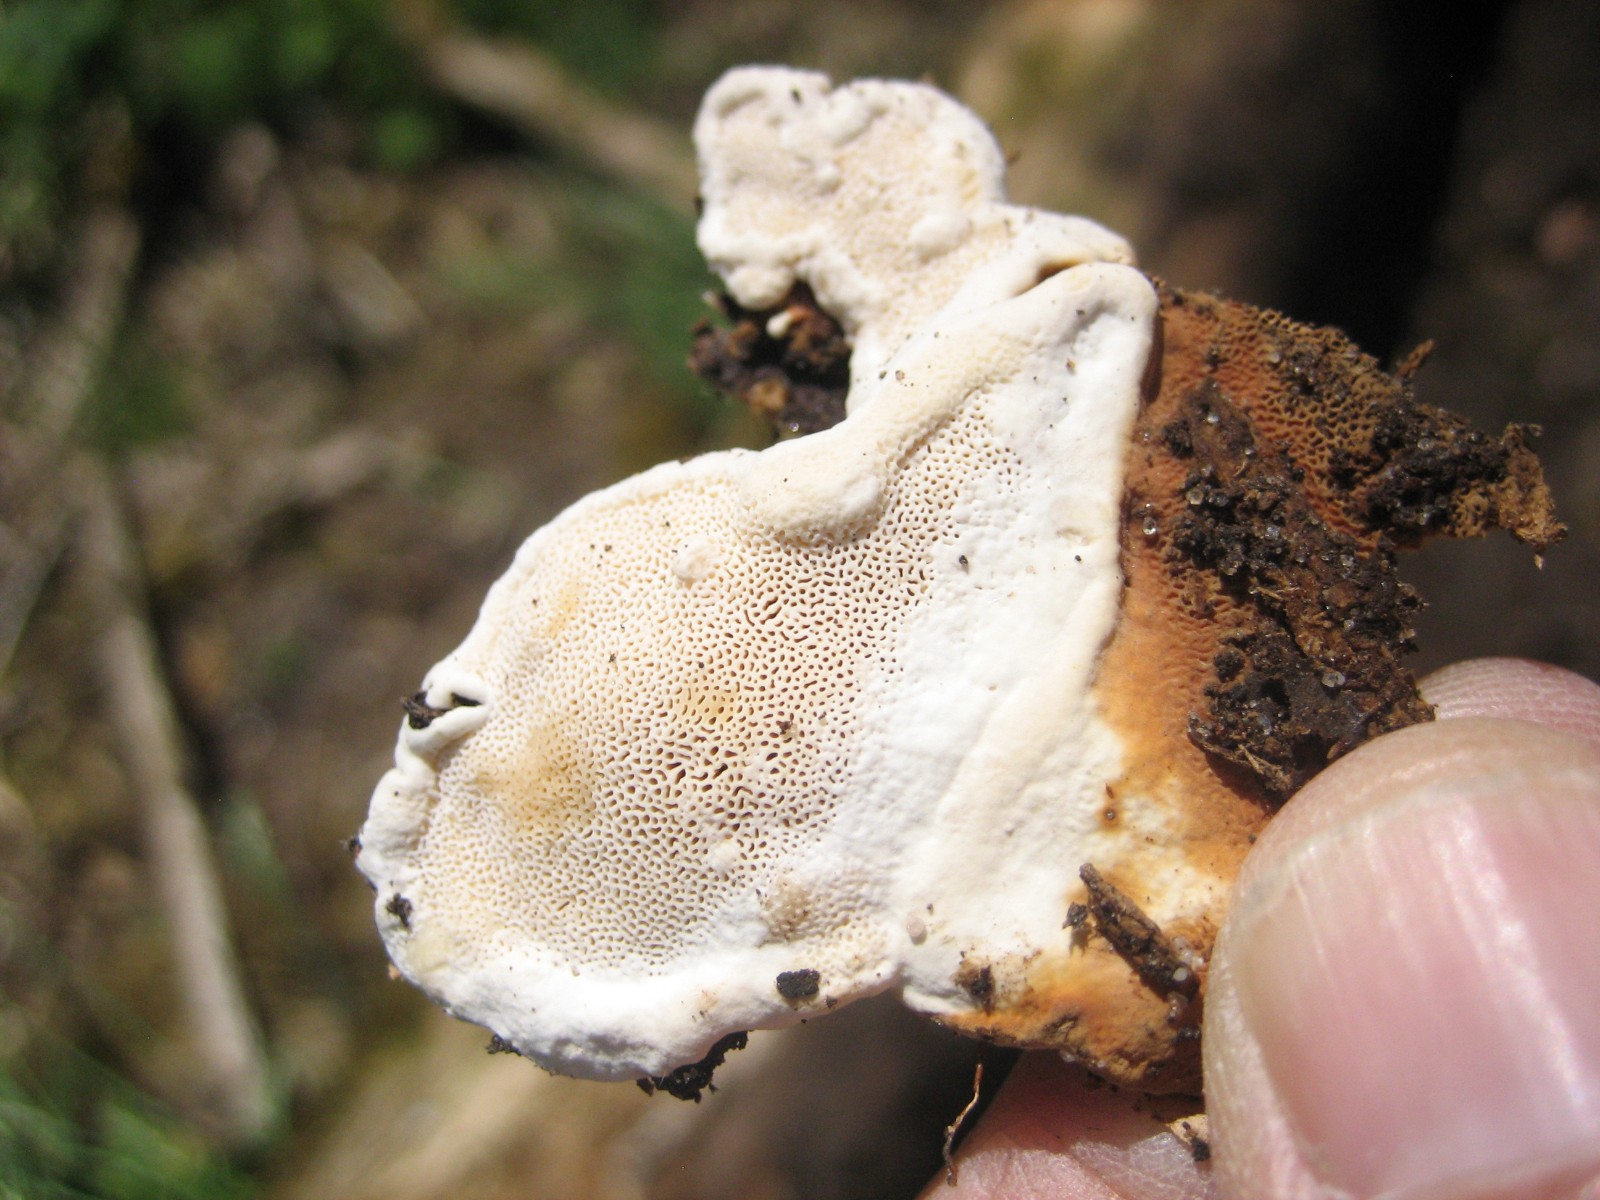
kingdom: Fungi
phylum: Basidiomycota
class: Agaricomycetes
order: Russulales
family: Bondarzewiaceae
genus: Heterobasidion
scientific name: Heterobasidion annosum
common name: almindelig rodfordærver
